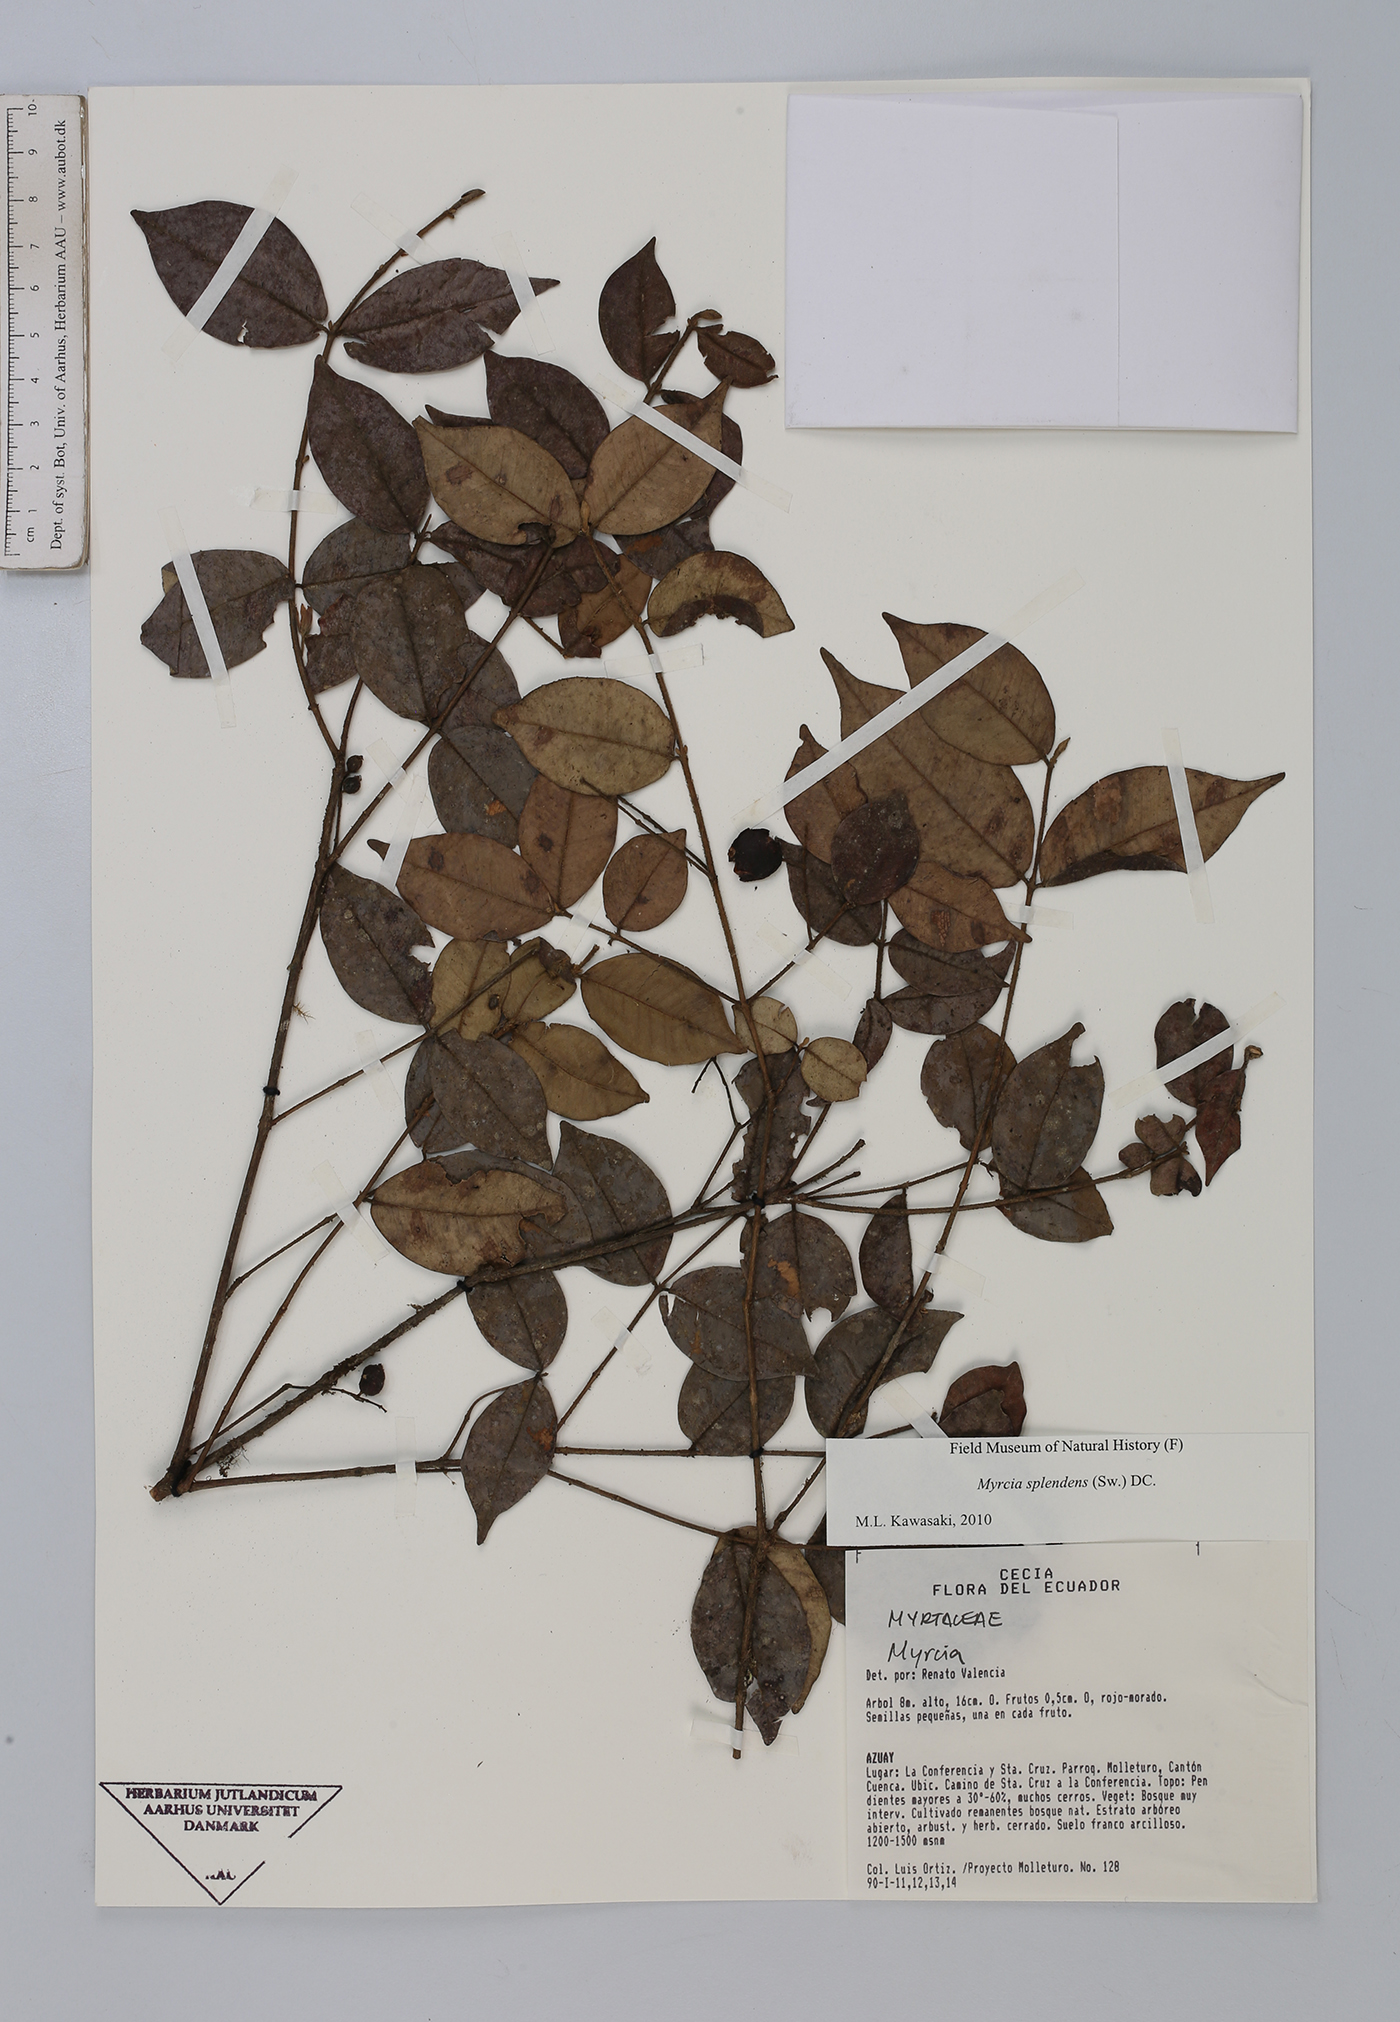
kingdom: Plantae
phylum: Tracheophyta
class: Magnoliopsida
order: Myrtales
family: Myrtaceae
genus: Myrcia
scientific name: Myrcia splendens
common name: Surinam cherry
